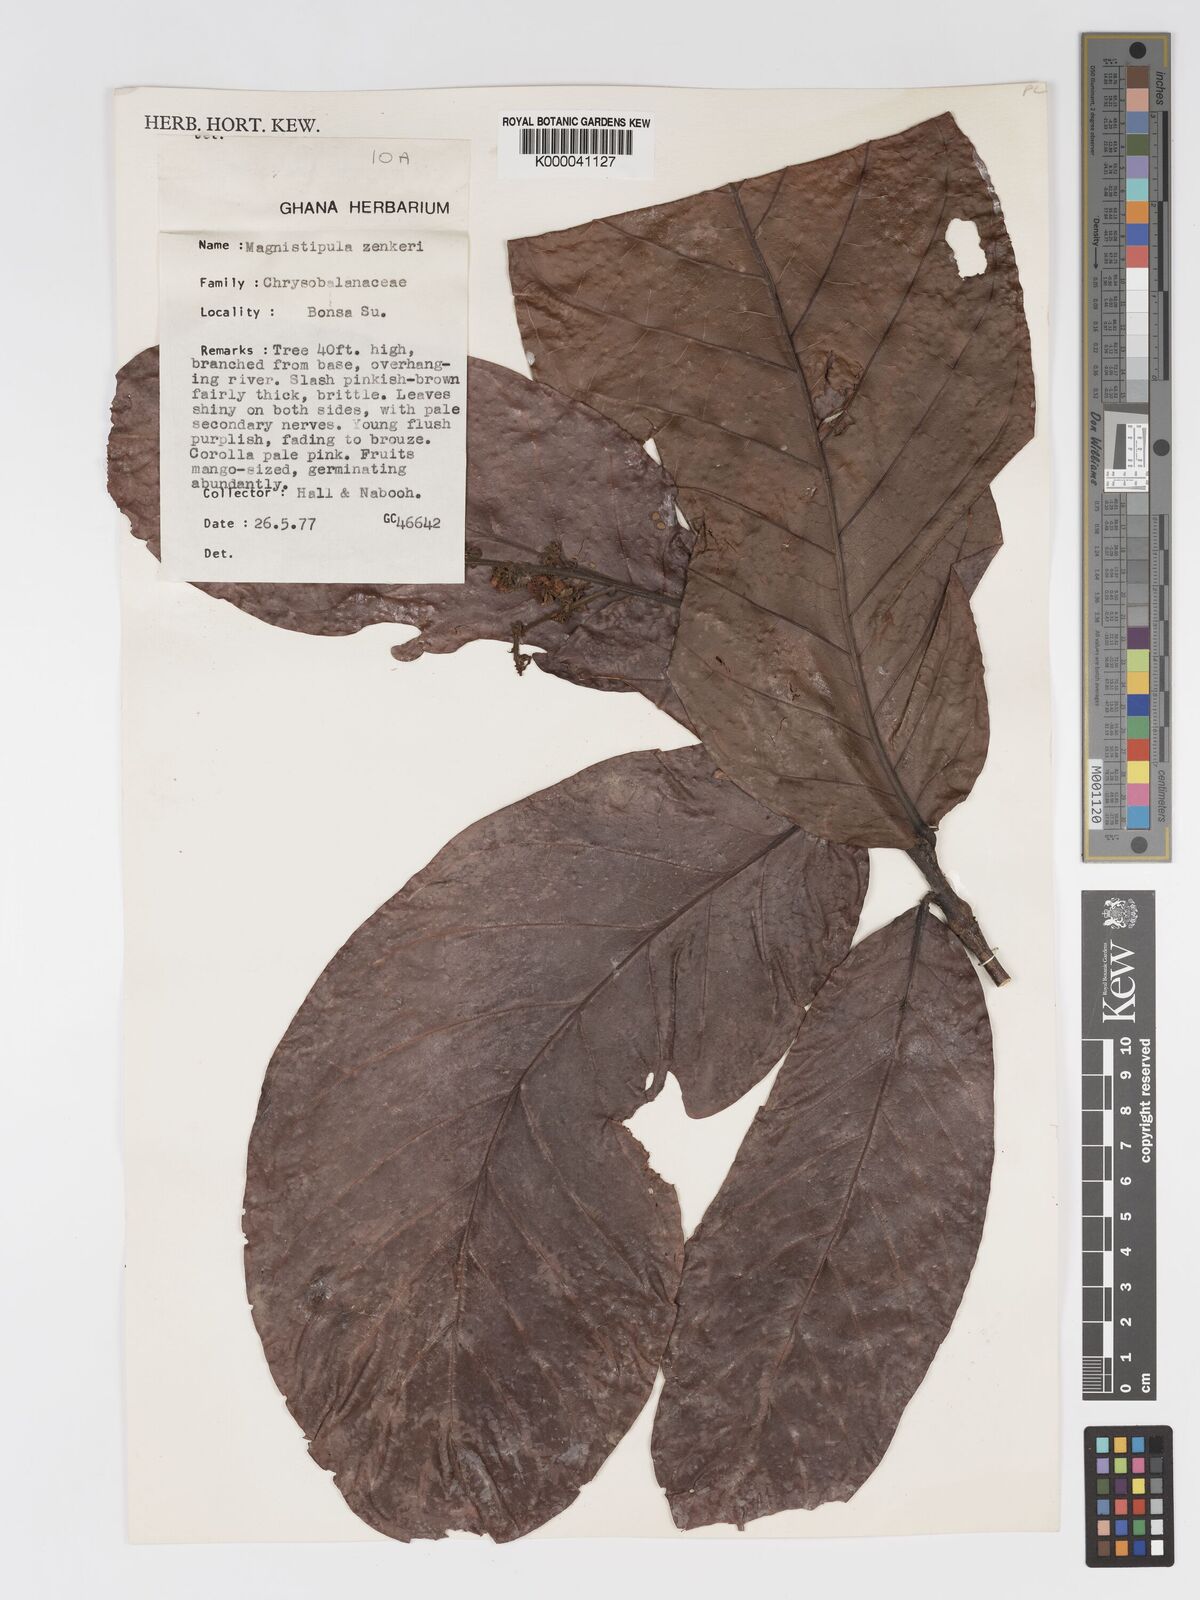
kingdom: Plantae
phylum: Tracheophyta
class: Magnoliopsida
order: Malpighiales
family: Chrysobalanaceae
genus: Magnistipula
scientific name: Magnistipula zenkeri
